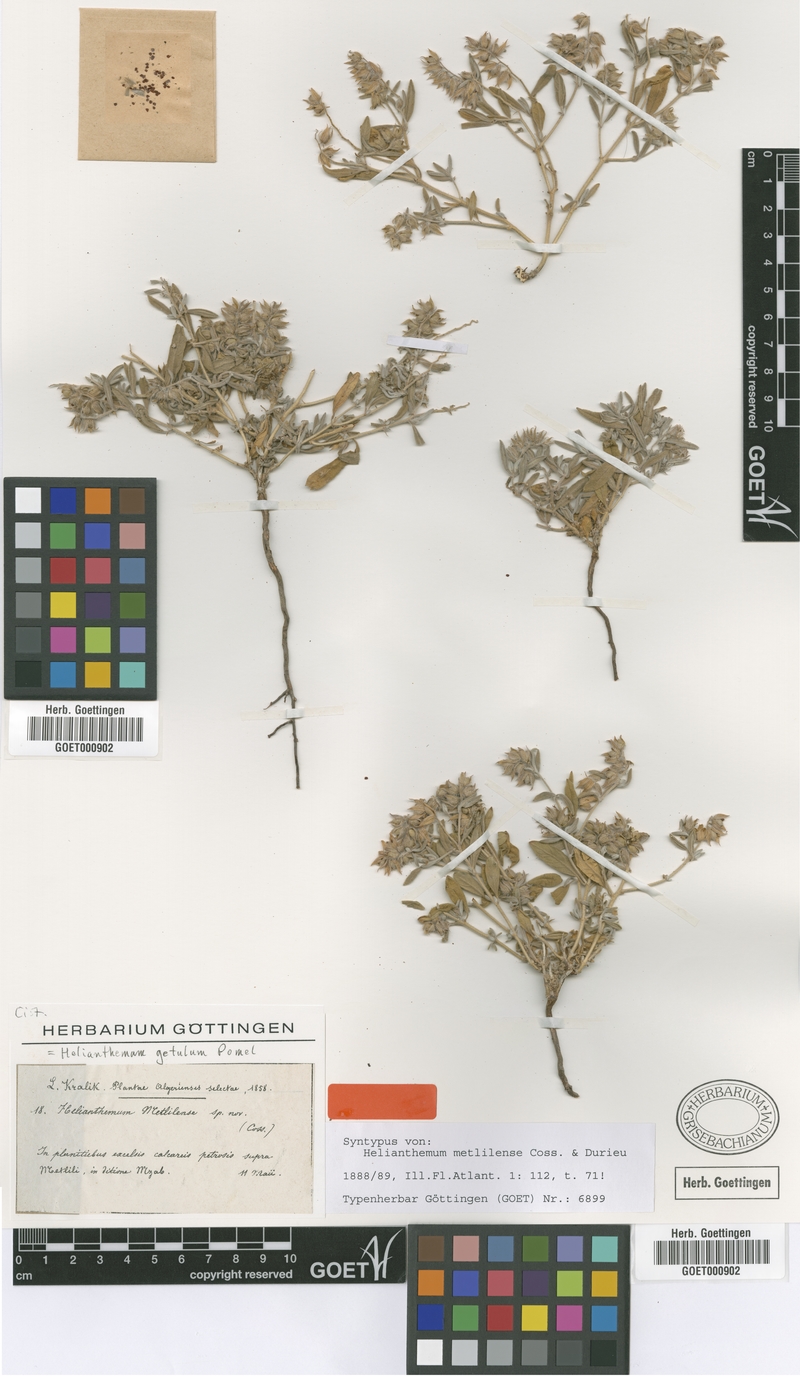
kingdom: Plantae
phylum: Tracheophyta
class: Magnoliopsida
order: Malvales
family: Cistaceae
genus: Helianthemum
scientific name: Helianthemum getulum
